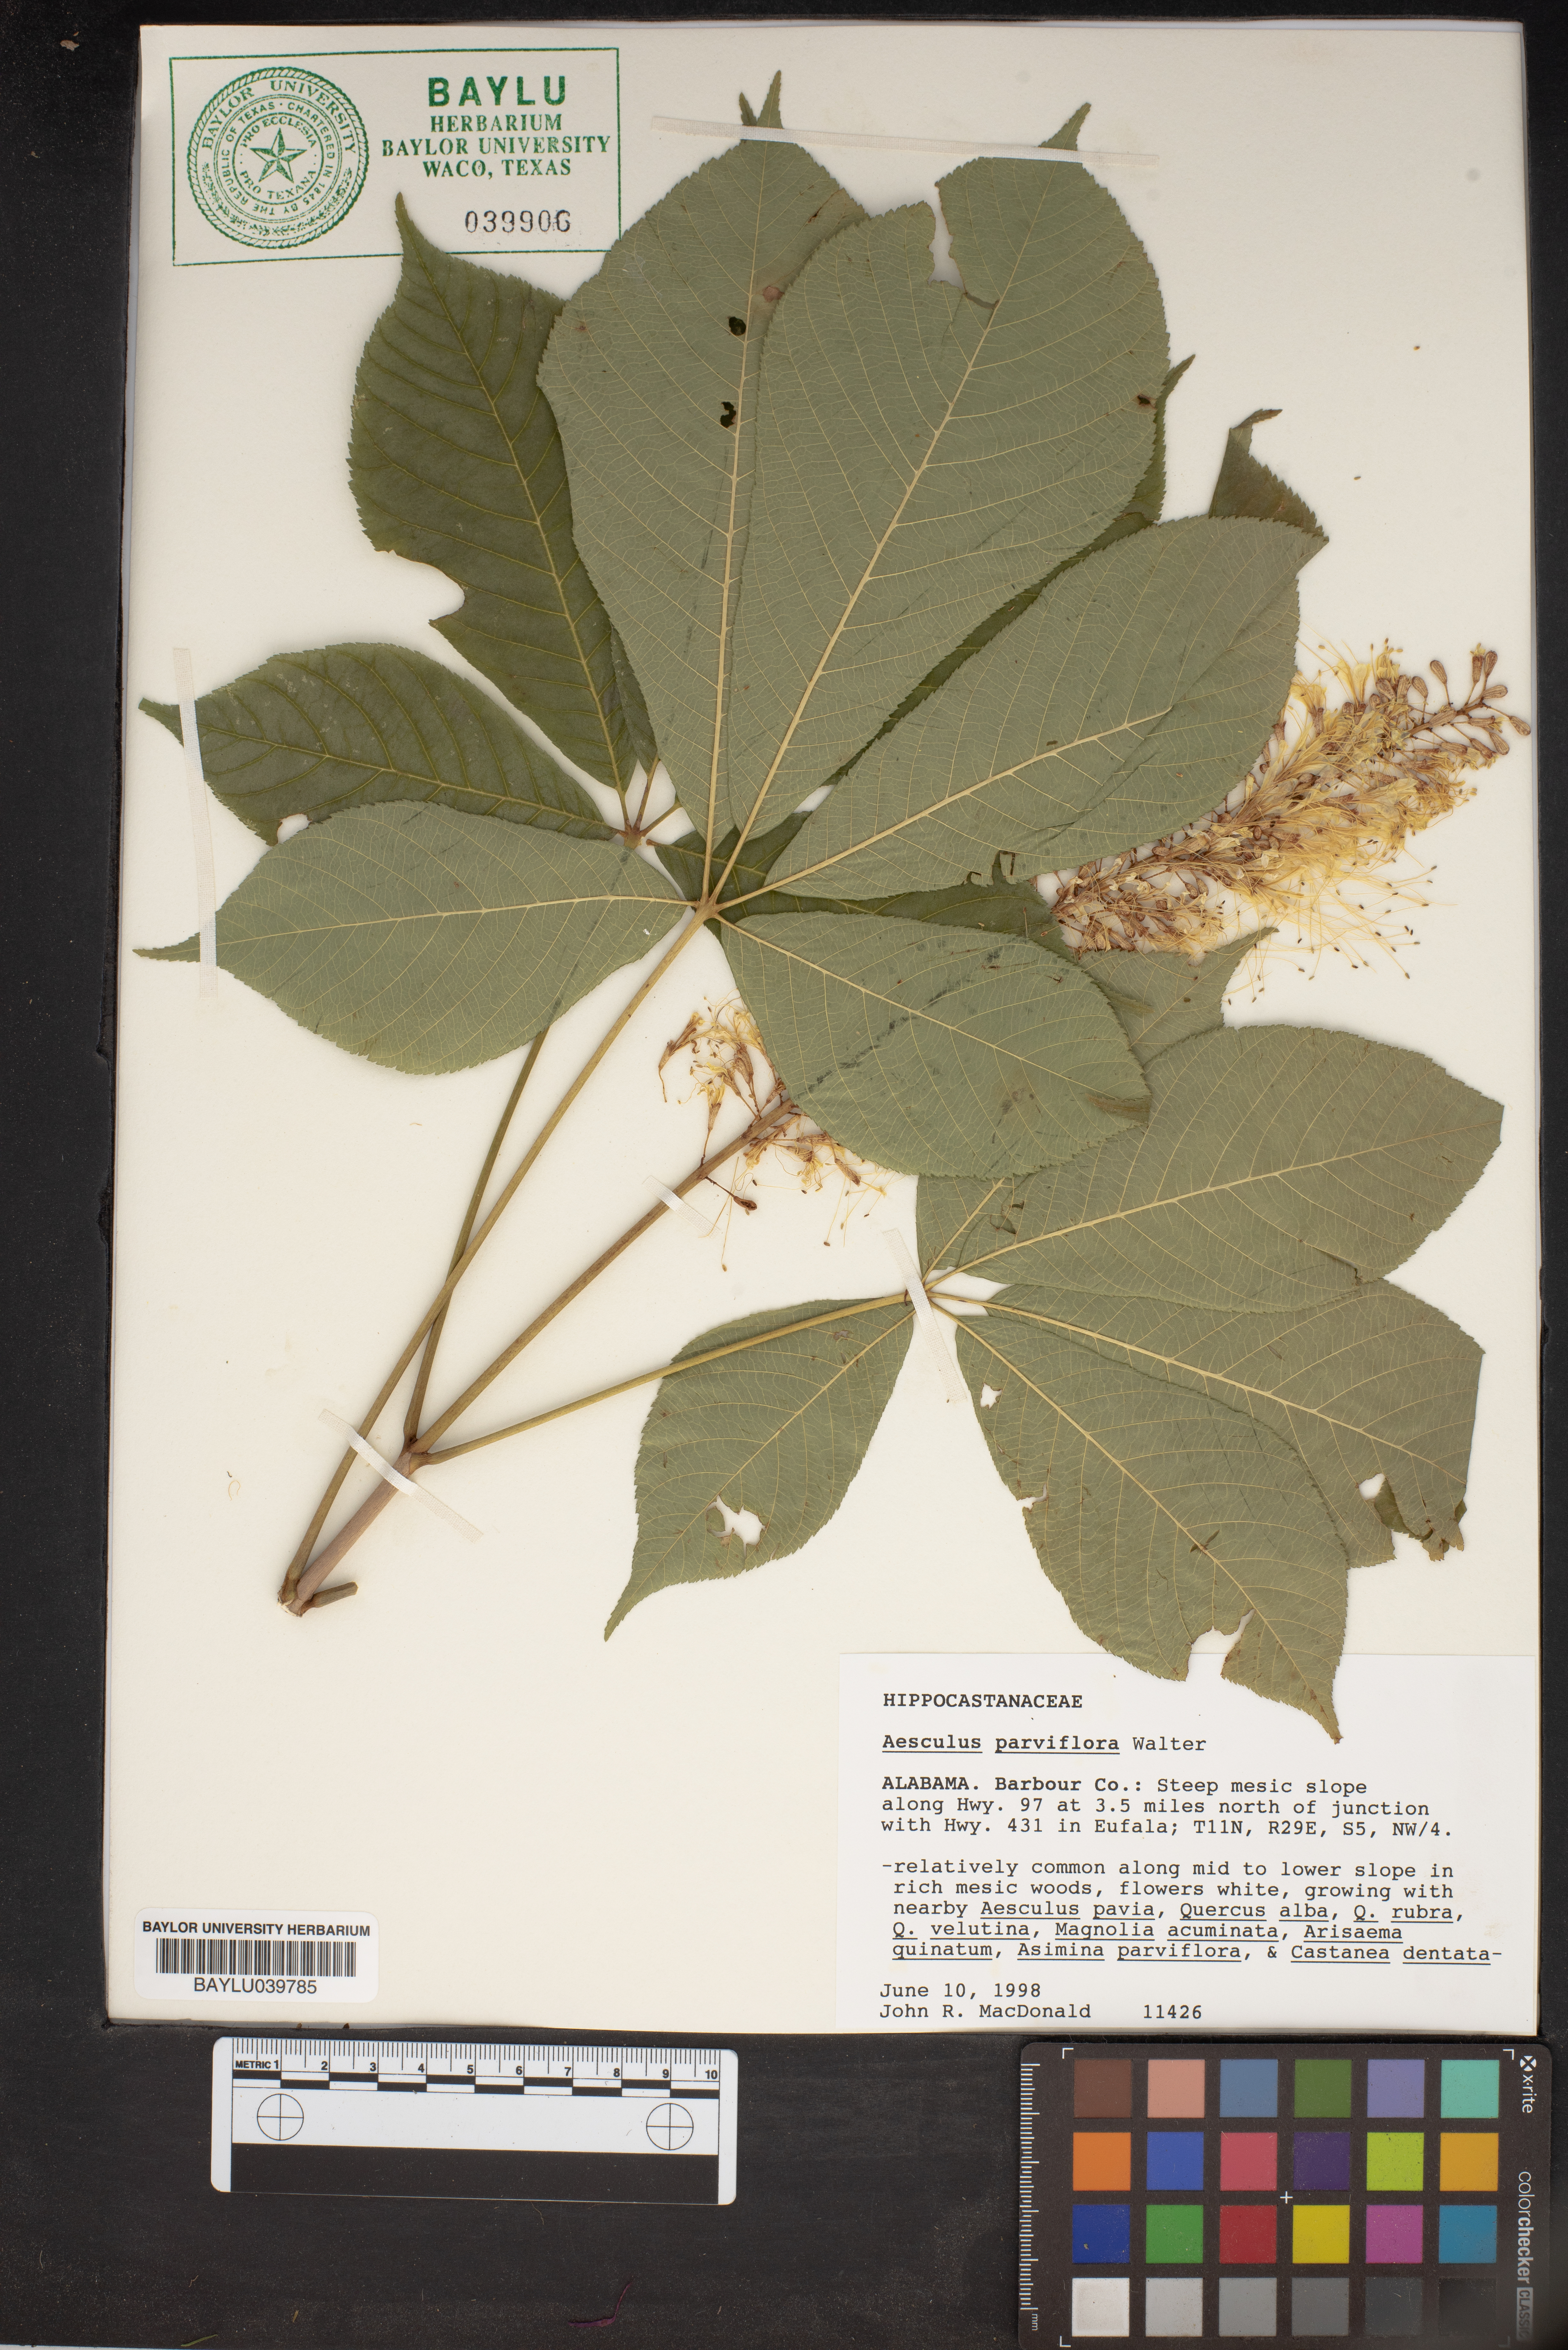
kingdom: Plantae
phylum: Tracheophyta
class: Magnoliopsida
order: Sapindales
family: Sapindaceae
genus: Aesculus
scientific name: Aesculus parviflora
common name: Bottlebrush buckeye
